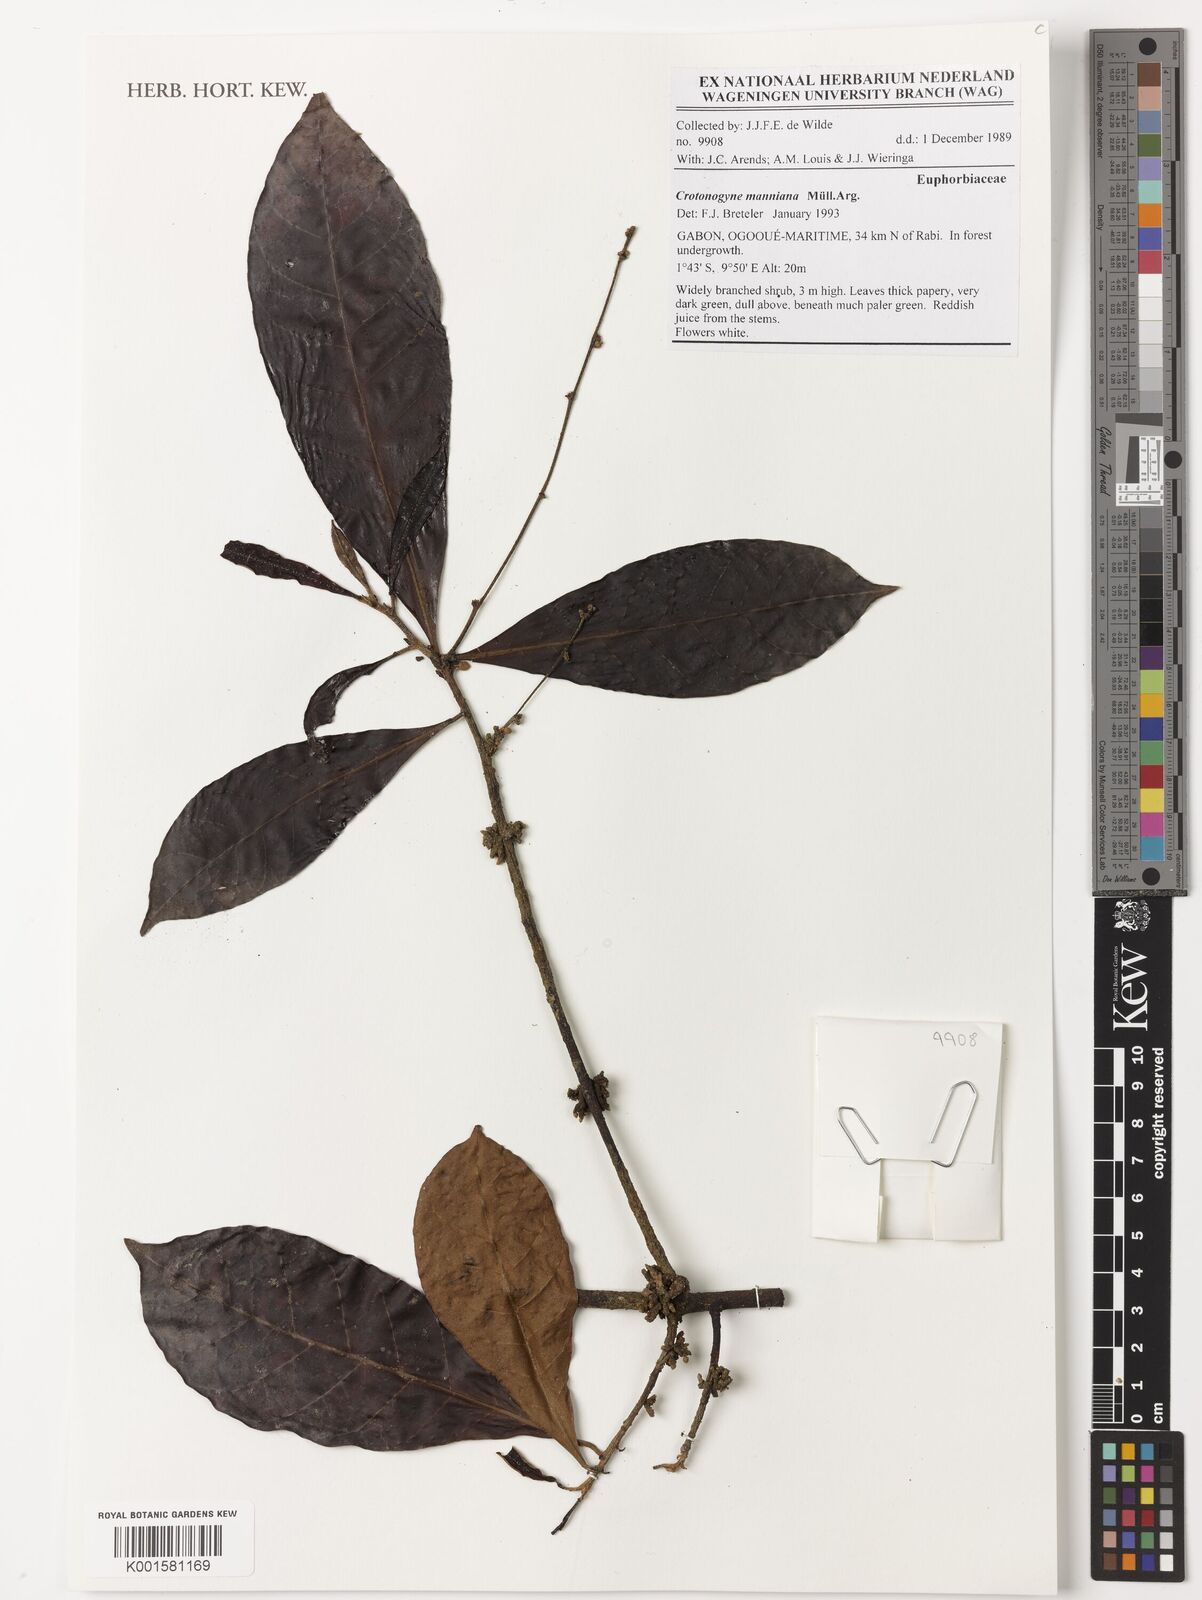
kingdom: Plantae
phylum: Tracheophyta
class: Magnoliopsida
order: Malpighiales
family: Euphorbiaceae
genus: Crotonogyne
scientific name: Crotonogyne manniana
